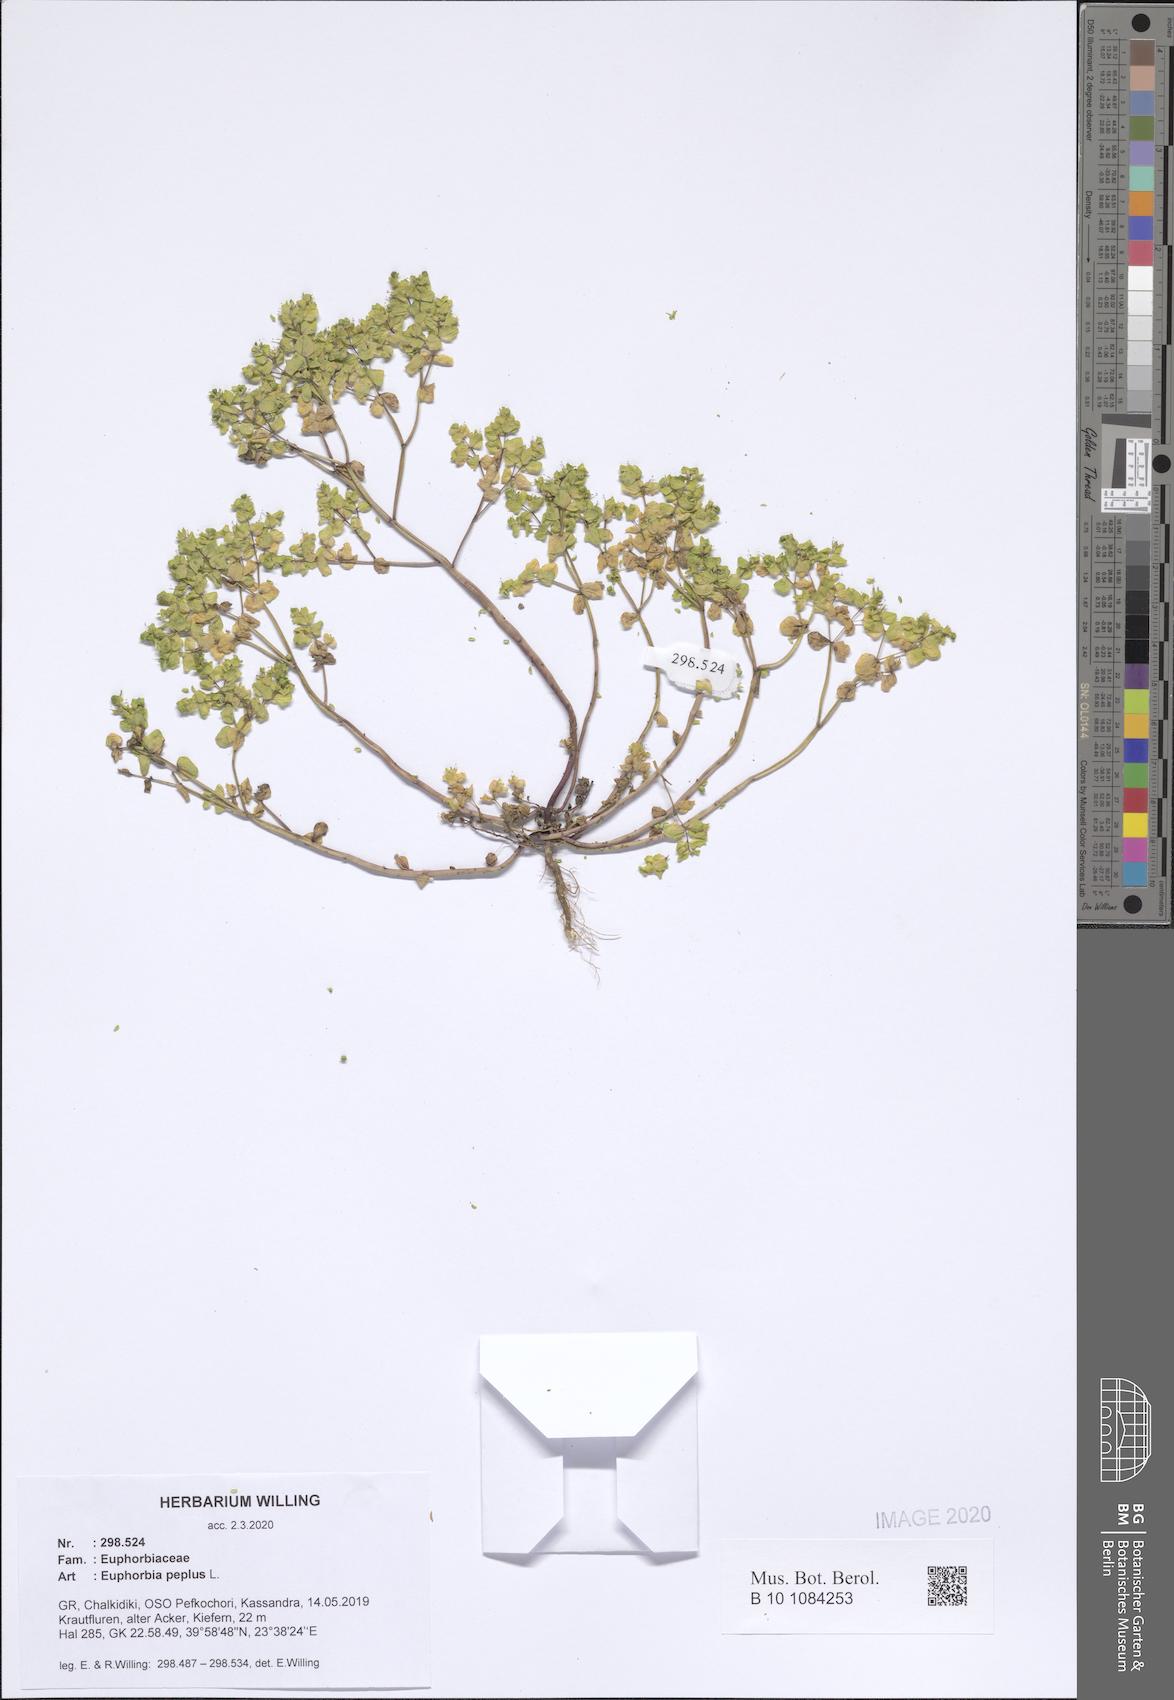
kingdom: Plantae
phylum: Tracheophyta
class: Magnoliopsida
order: Malpighiales
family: Euphorbiaceae
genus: Euphorbia
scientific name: Euphorbia peplus
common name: Petty spurge
